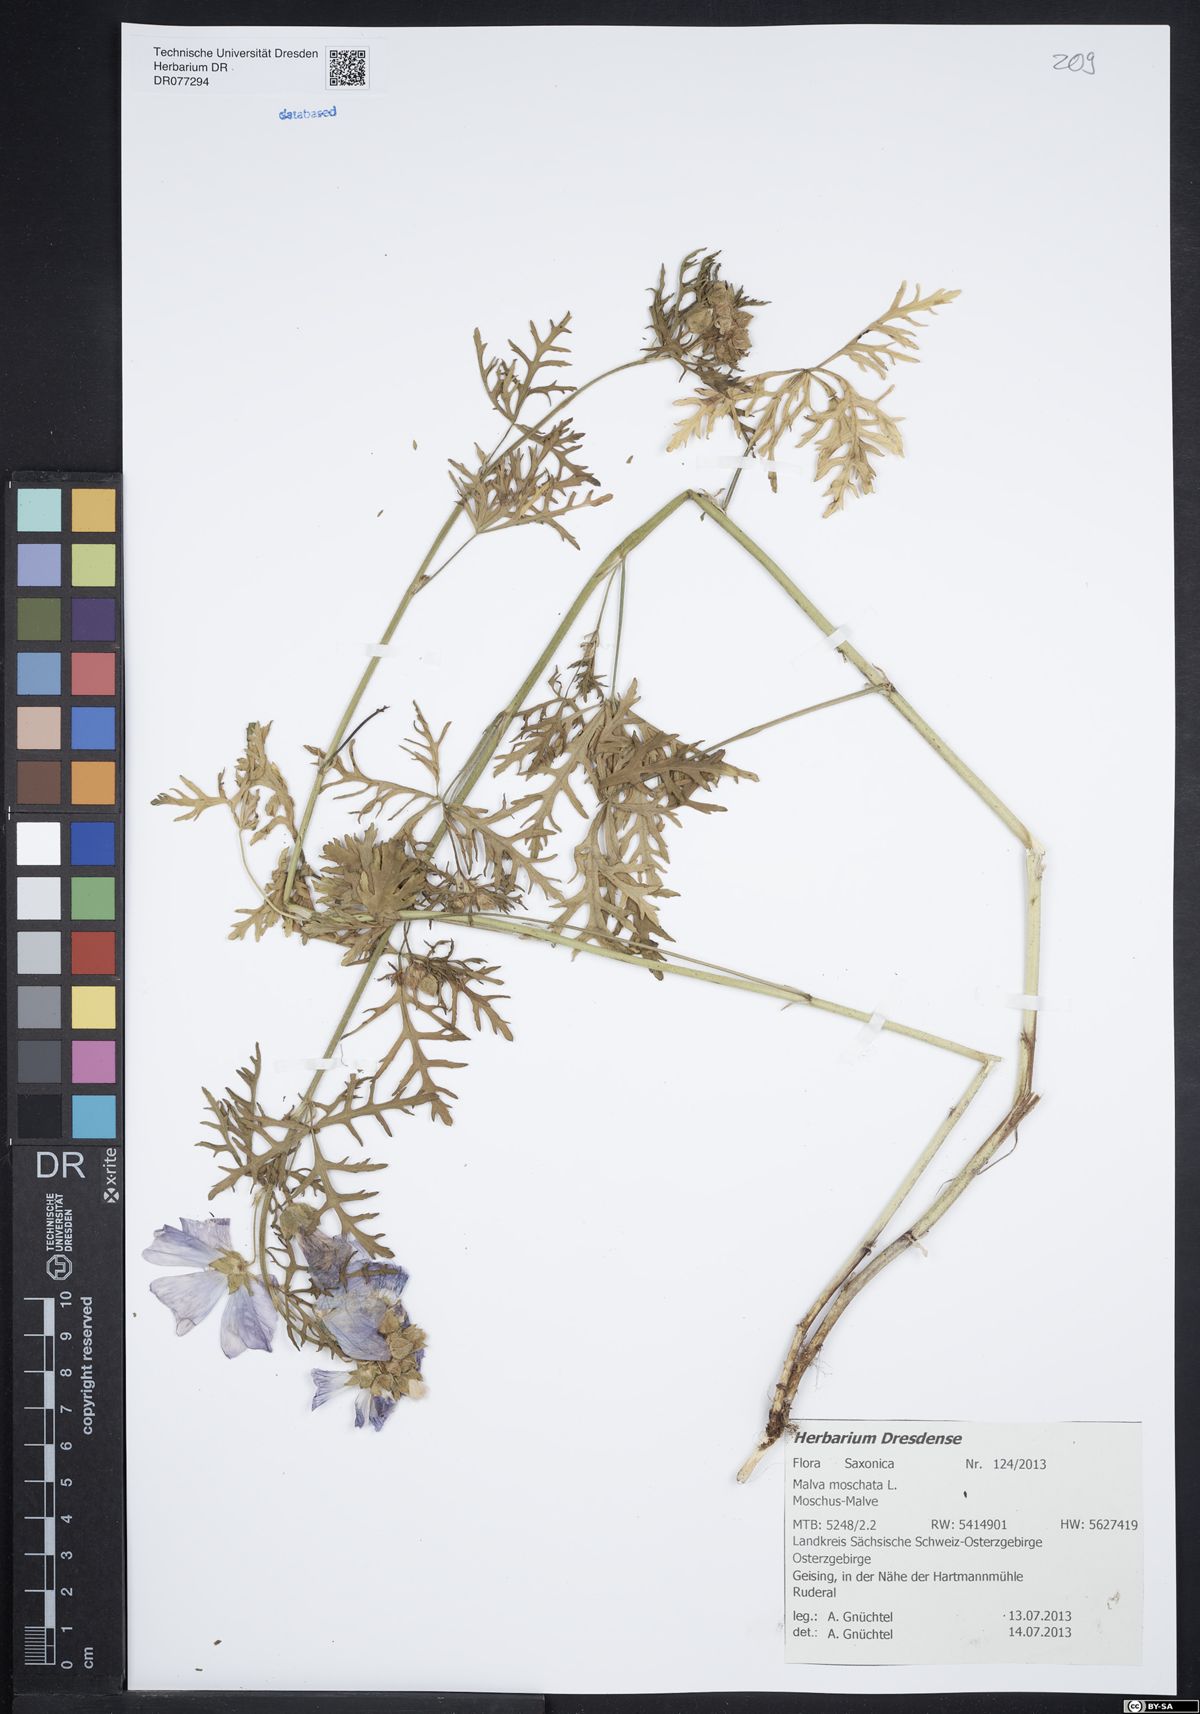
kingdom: Plantae
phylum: Tracheophyta
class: Magnoliopsida
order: Malvales
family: Malvaceae
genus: Malva
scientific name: Malva moschata
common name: Musk mallow
